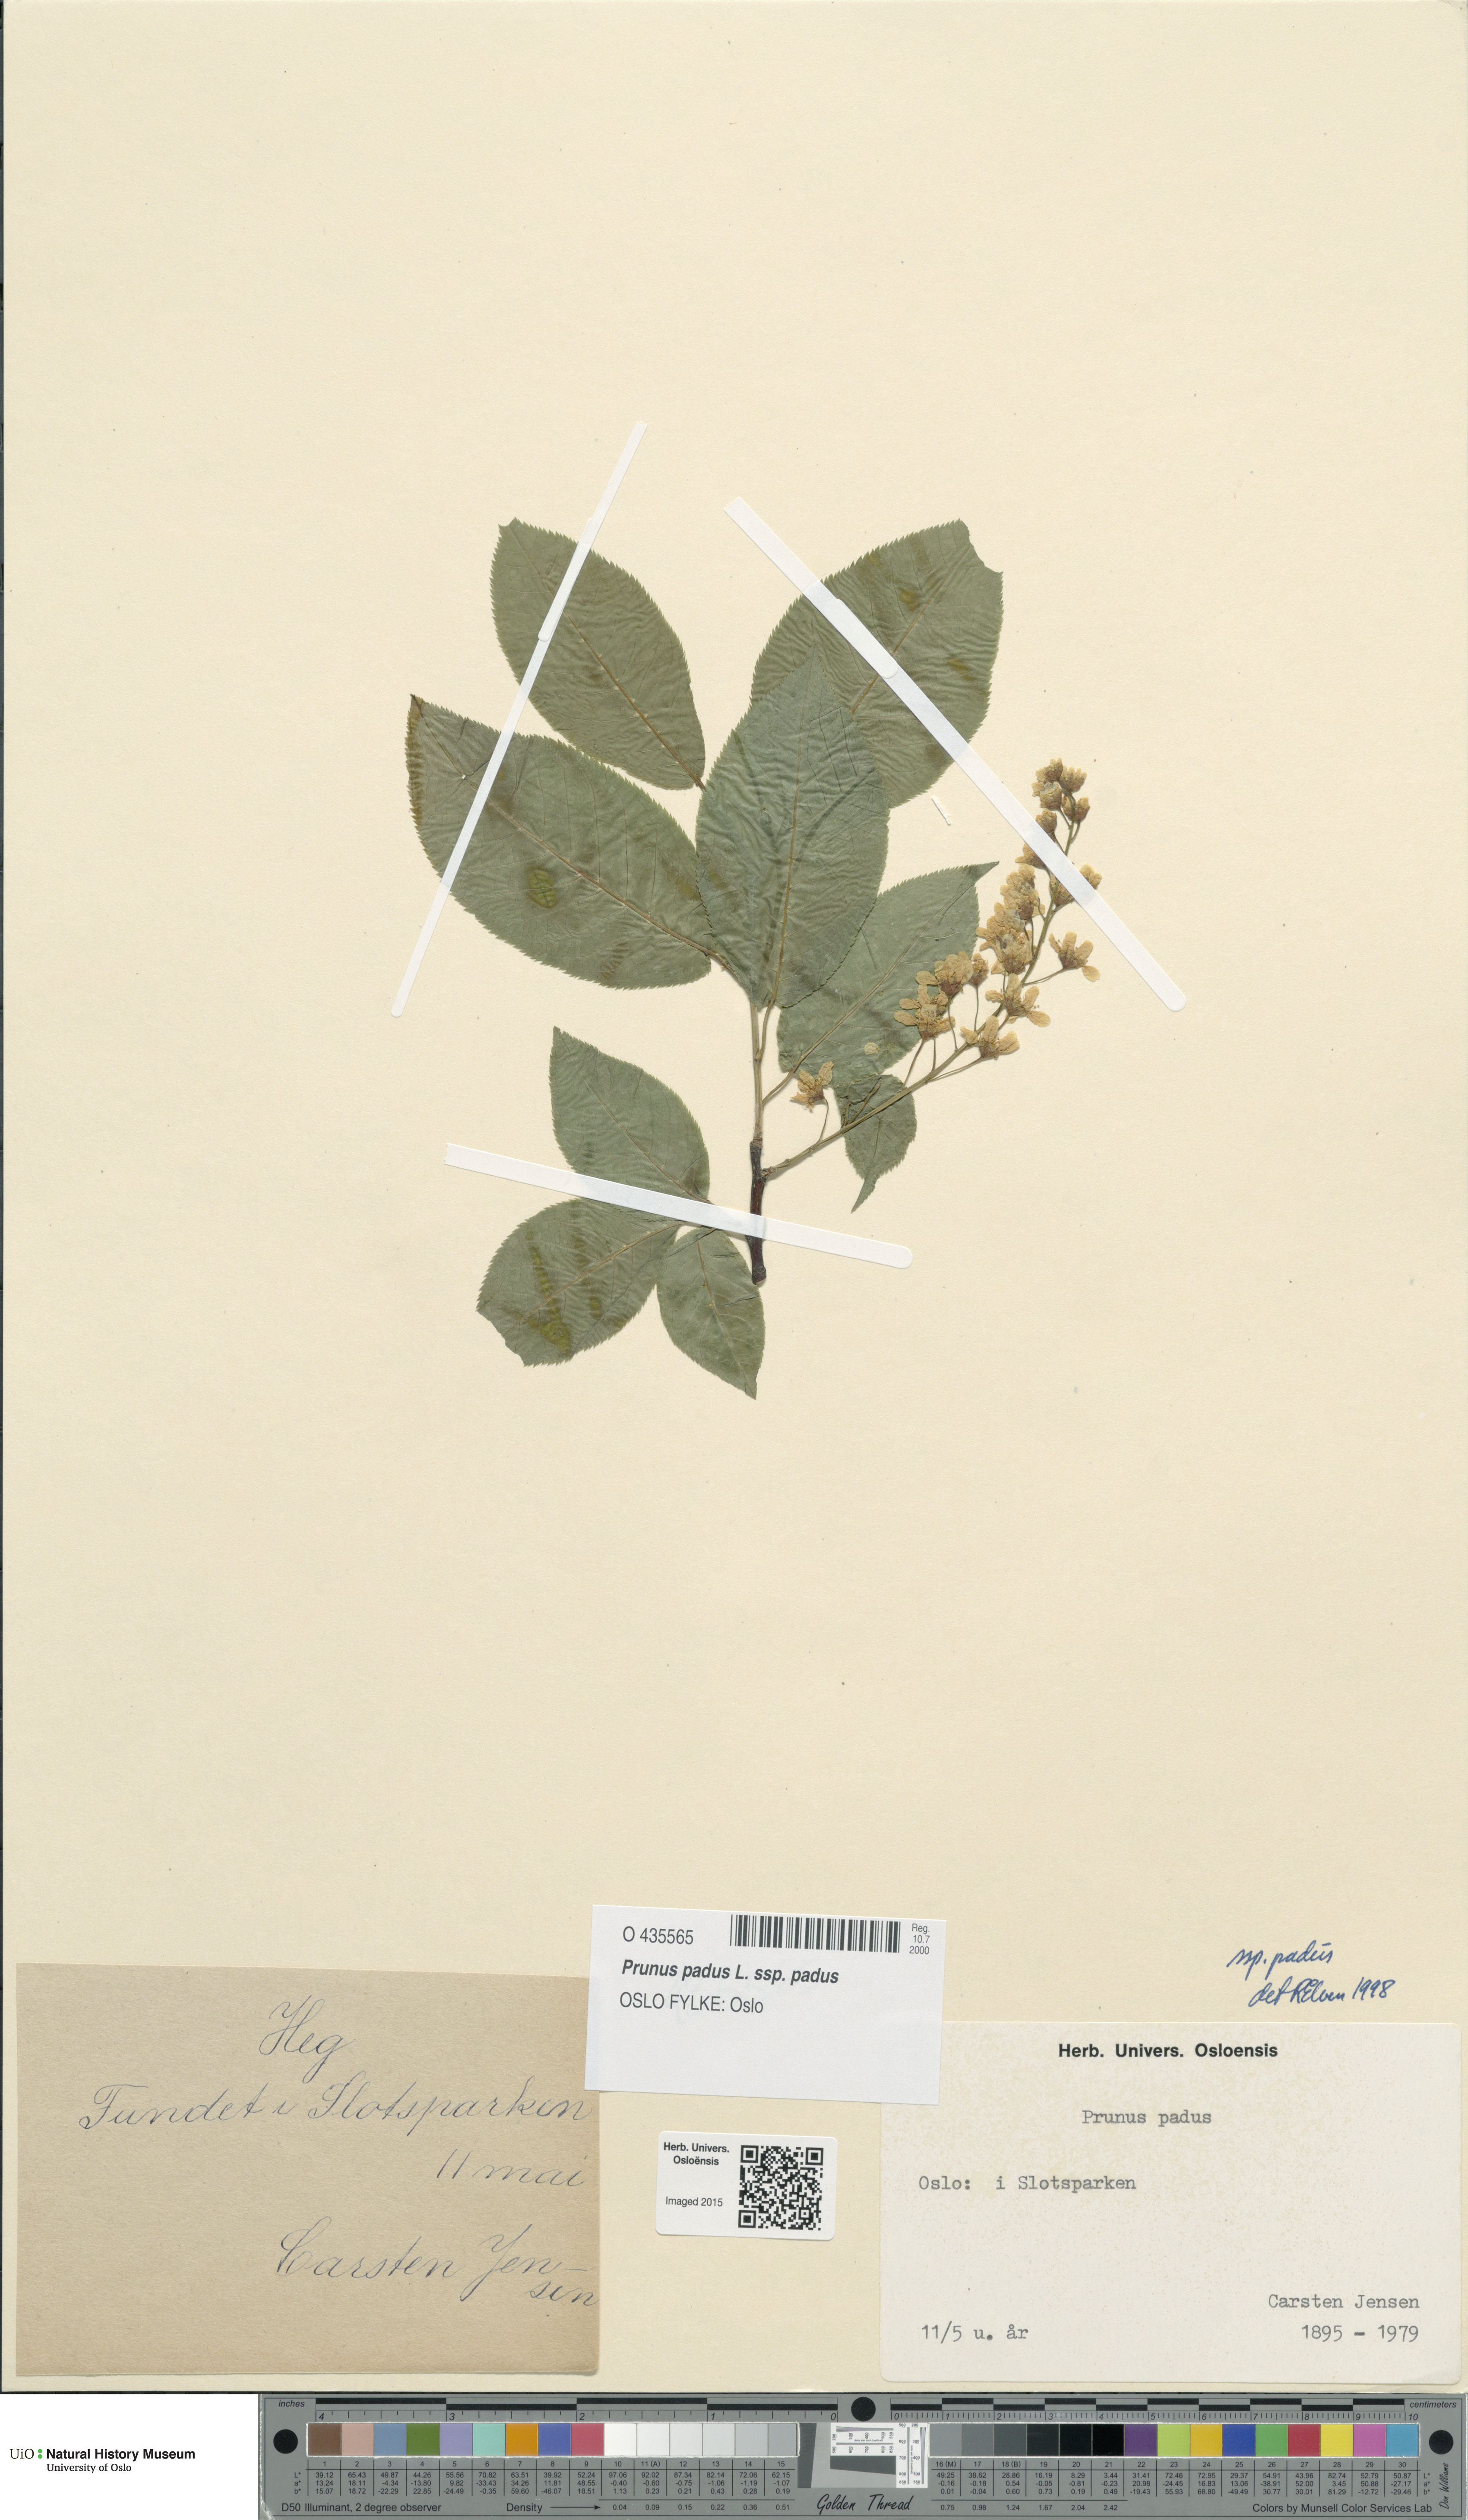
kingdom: Plantae
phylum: Tracheophyta
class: Magnoliopsida
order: Rosales
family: Rosaceae
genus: Prunus
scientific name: Prunus padus
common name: Bird cherry
